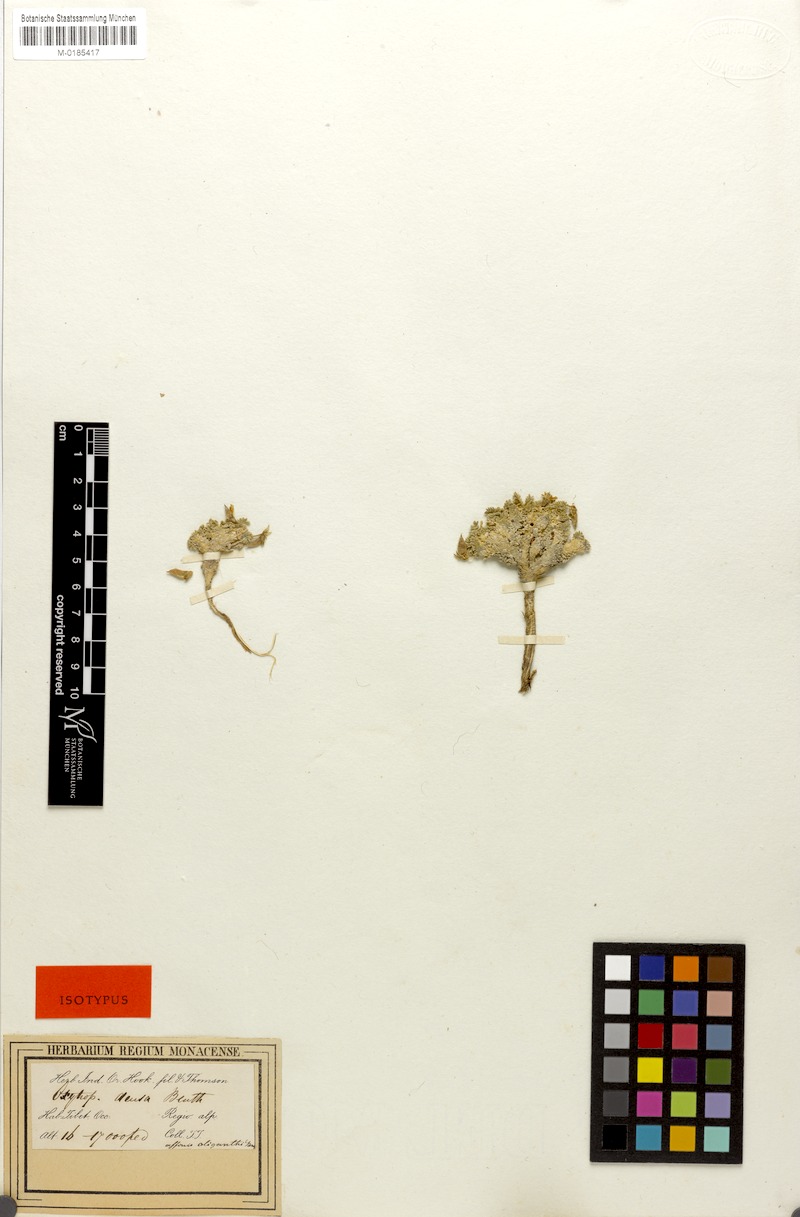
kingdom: Plantae
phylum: Tracheophyta
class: Magnoliopsida
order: Fabales
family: Fabaceae
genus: Oxytropis
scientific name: Oxytropis densa
